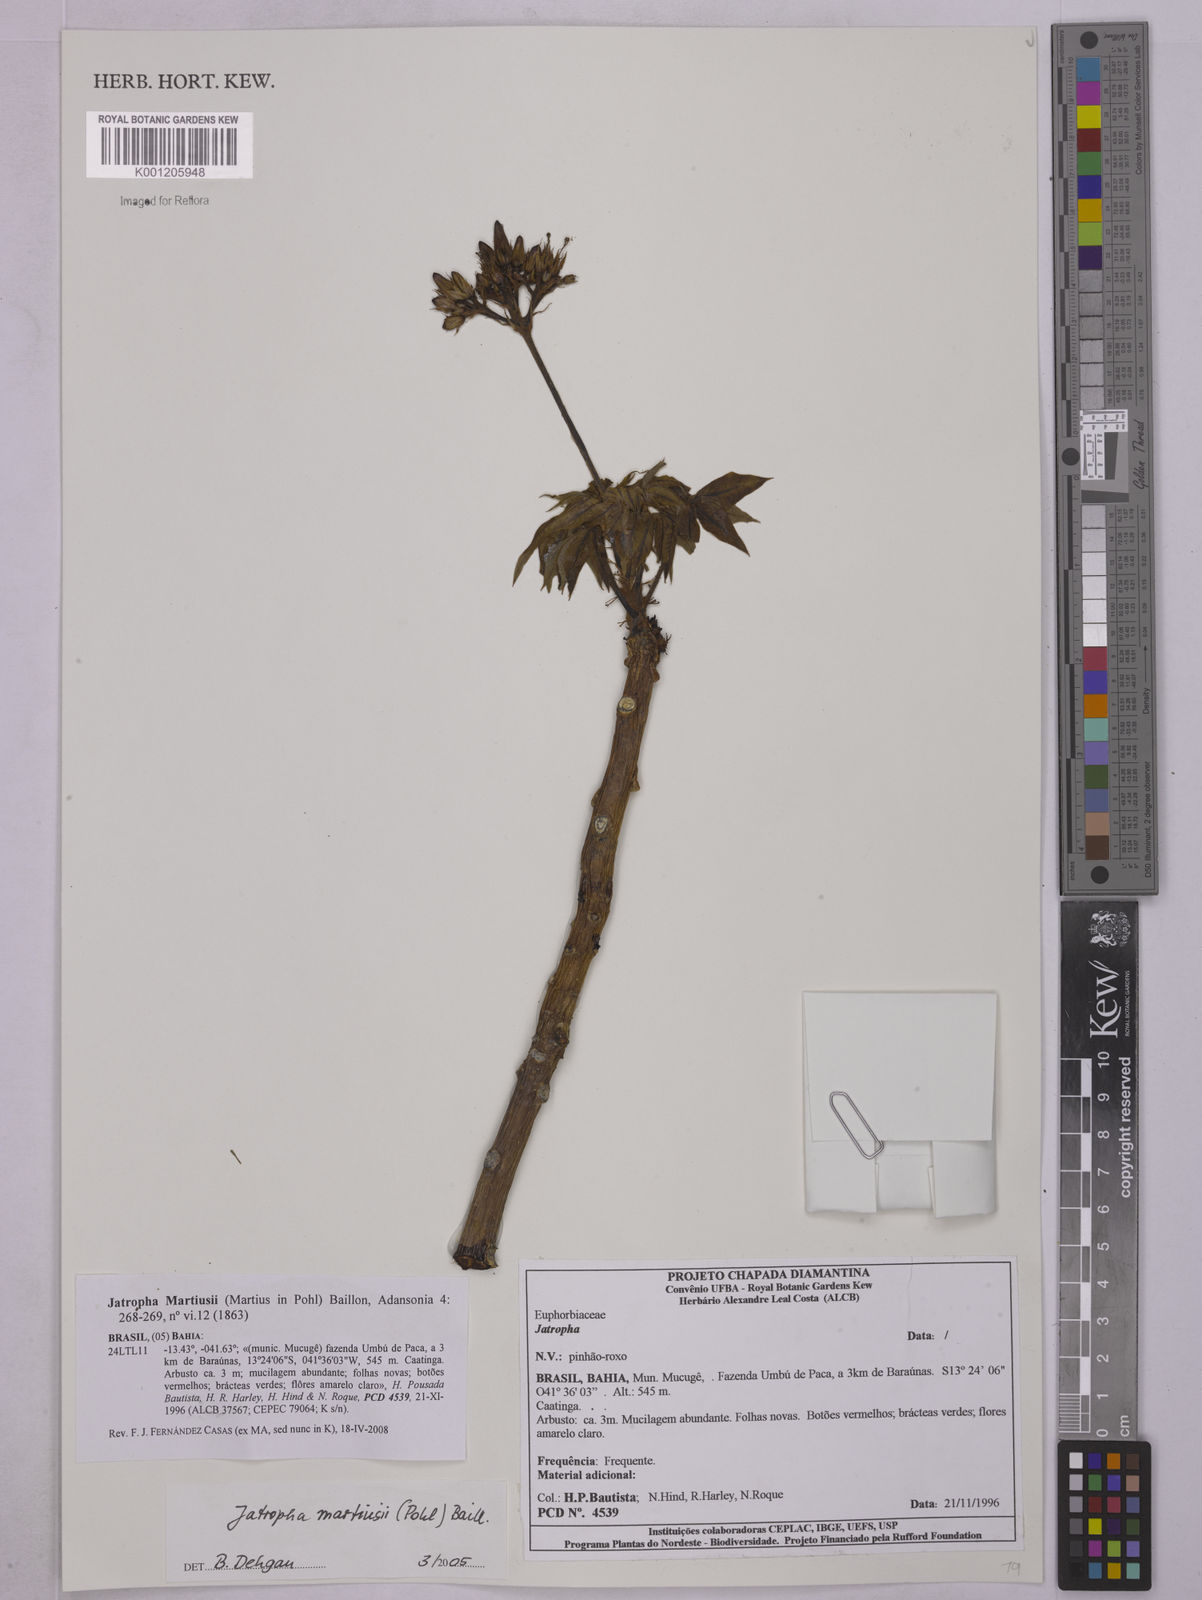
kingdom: Plantae
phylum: Tracheophyta
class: Magnoliopsida
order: Malpighiales
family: Euphorbiaceae
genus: Jatropha
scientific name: Jatropha martiusii
